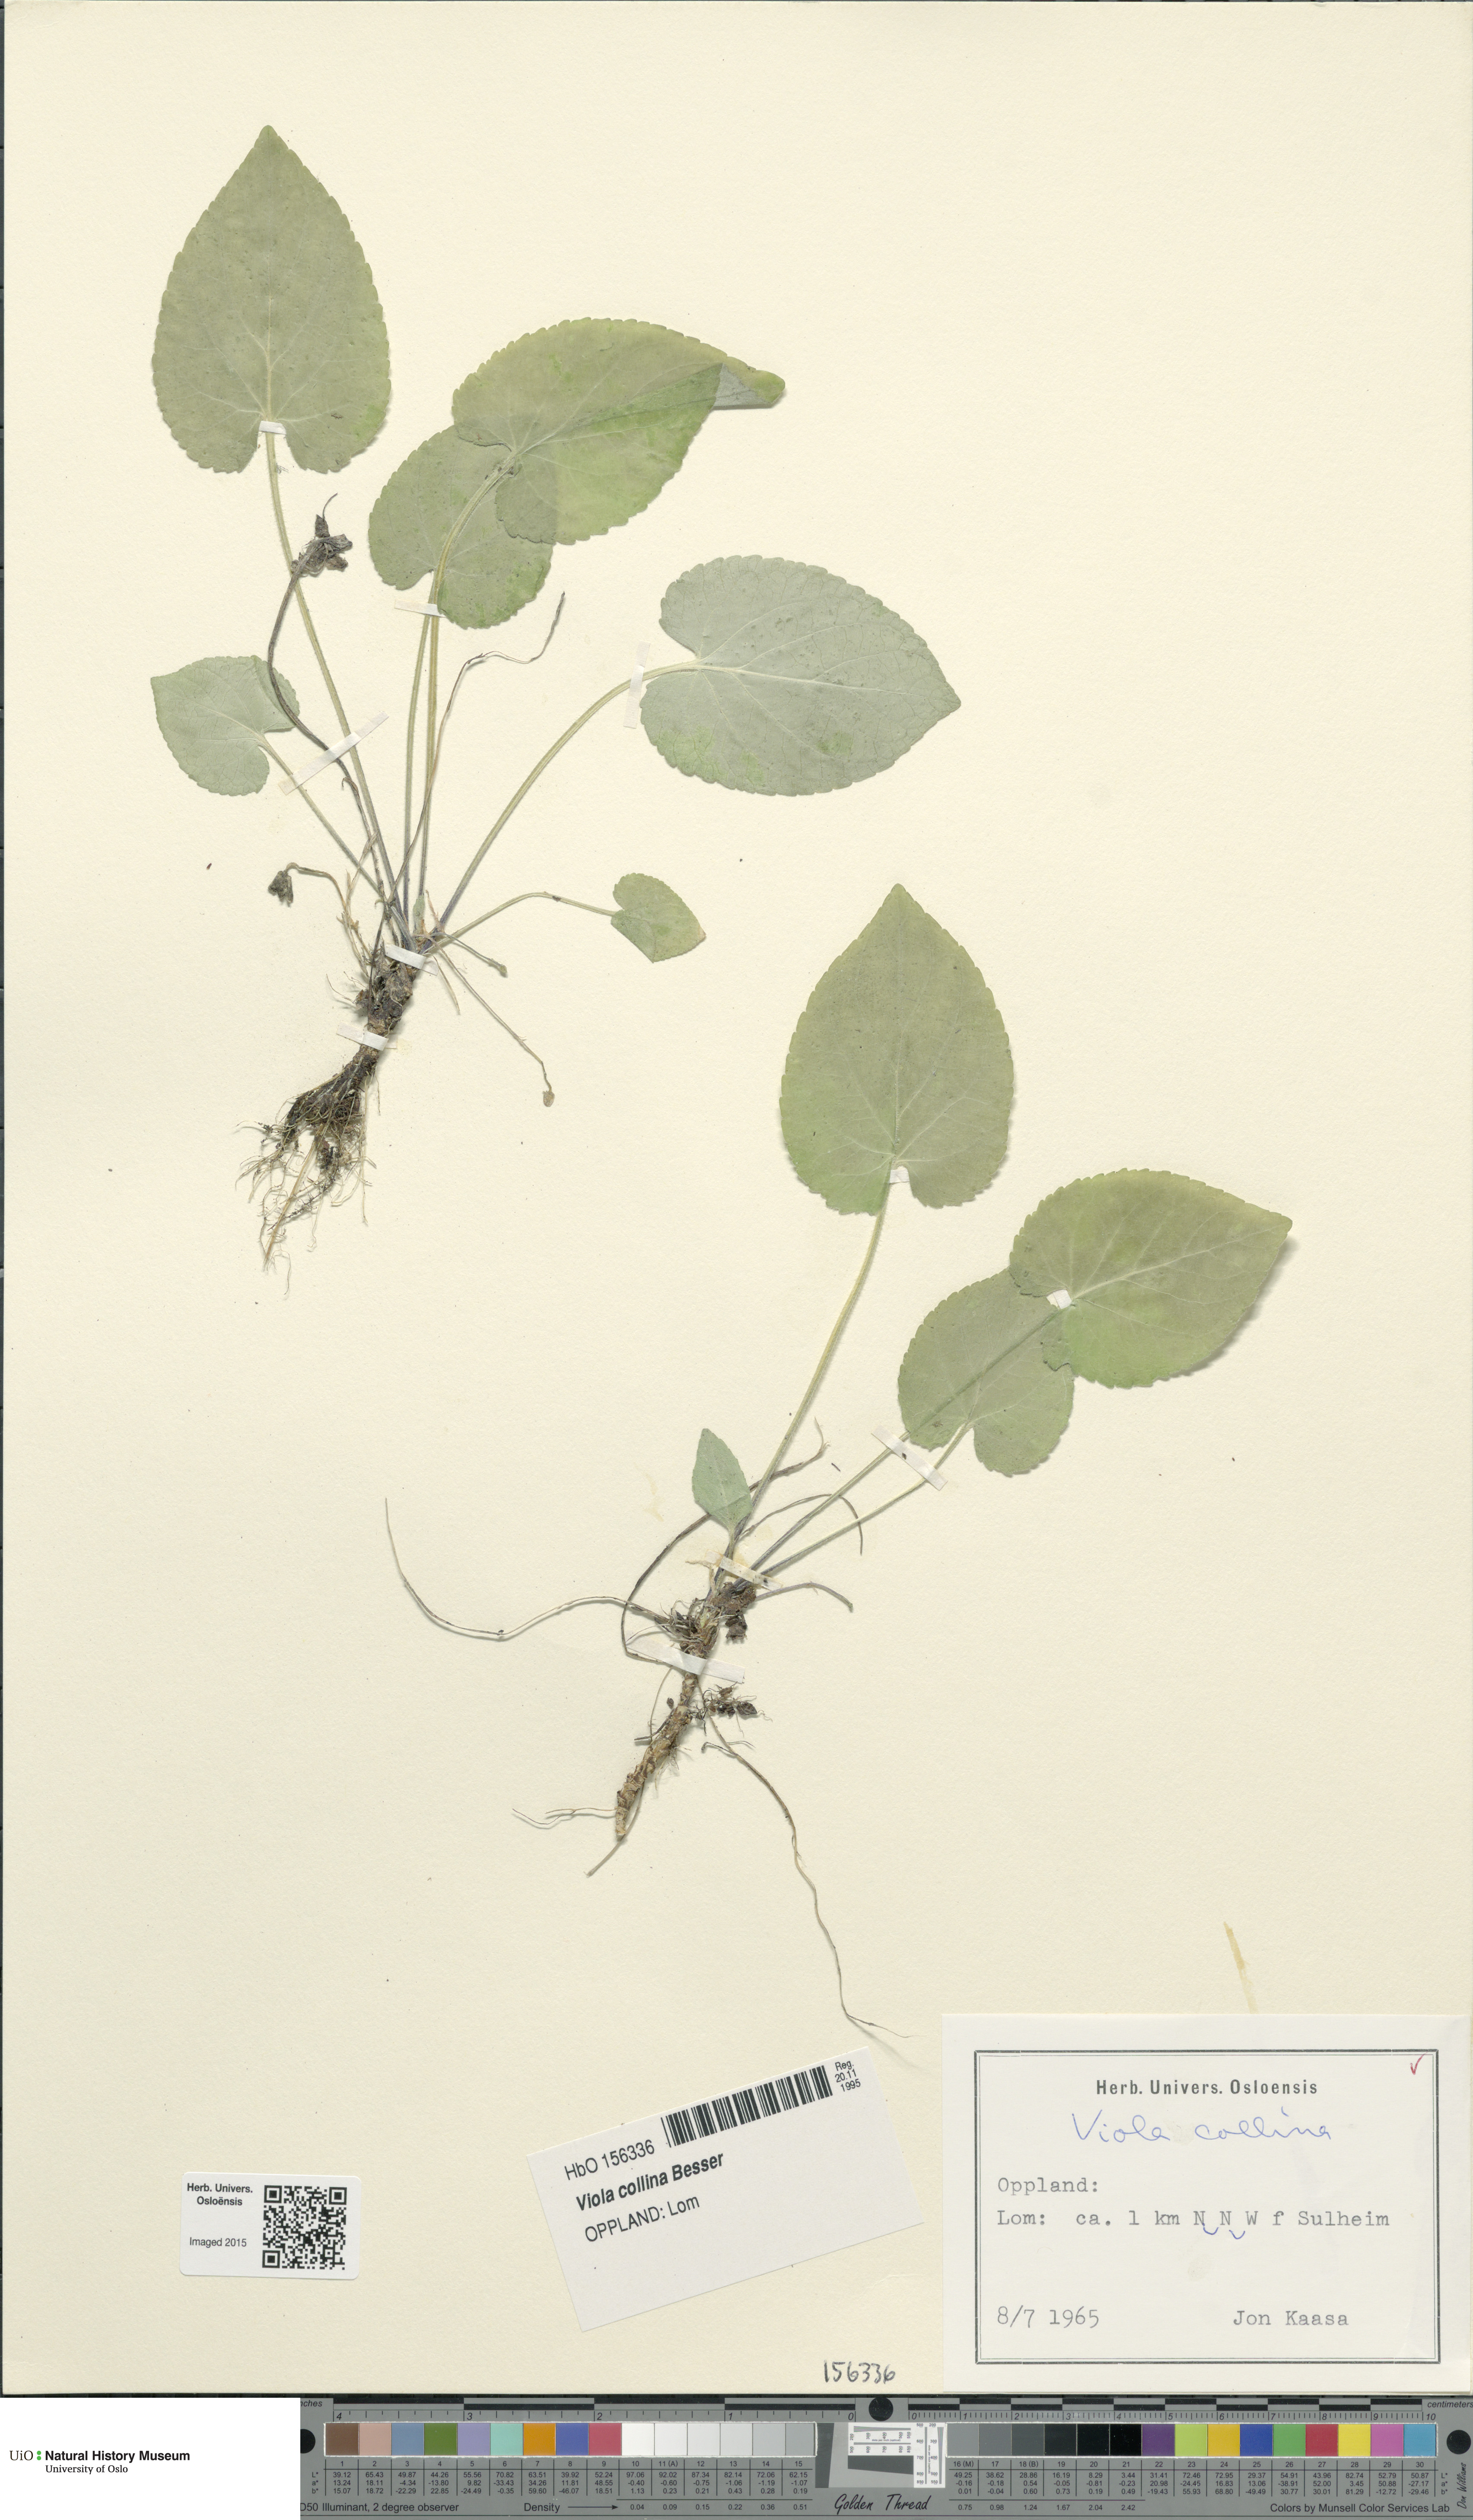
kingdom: Plantae
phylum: Tracheophyta
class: Magnoliopsida
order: Malpighiales
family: Violaceae
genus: Viola
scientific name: Viola collina
